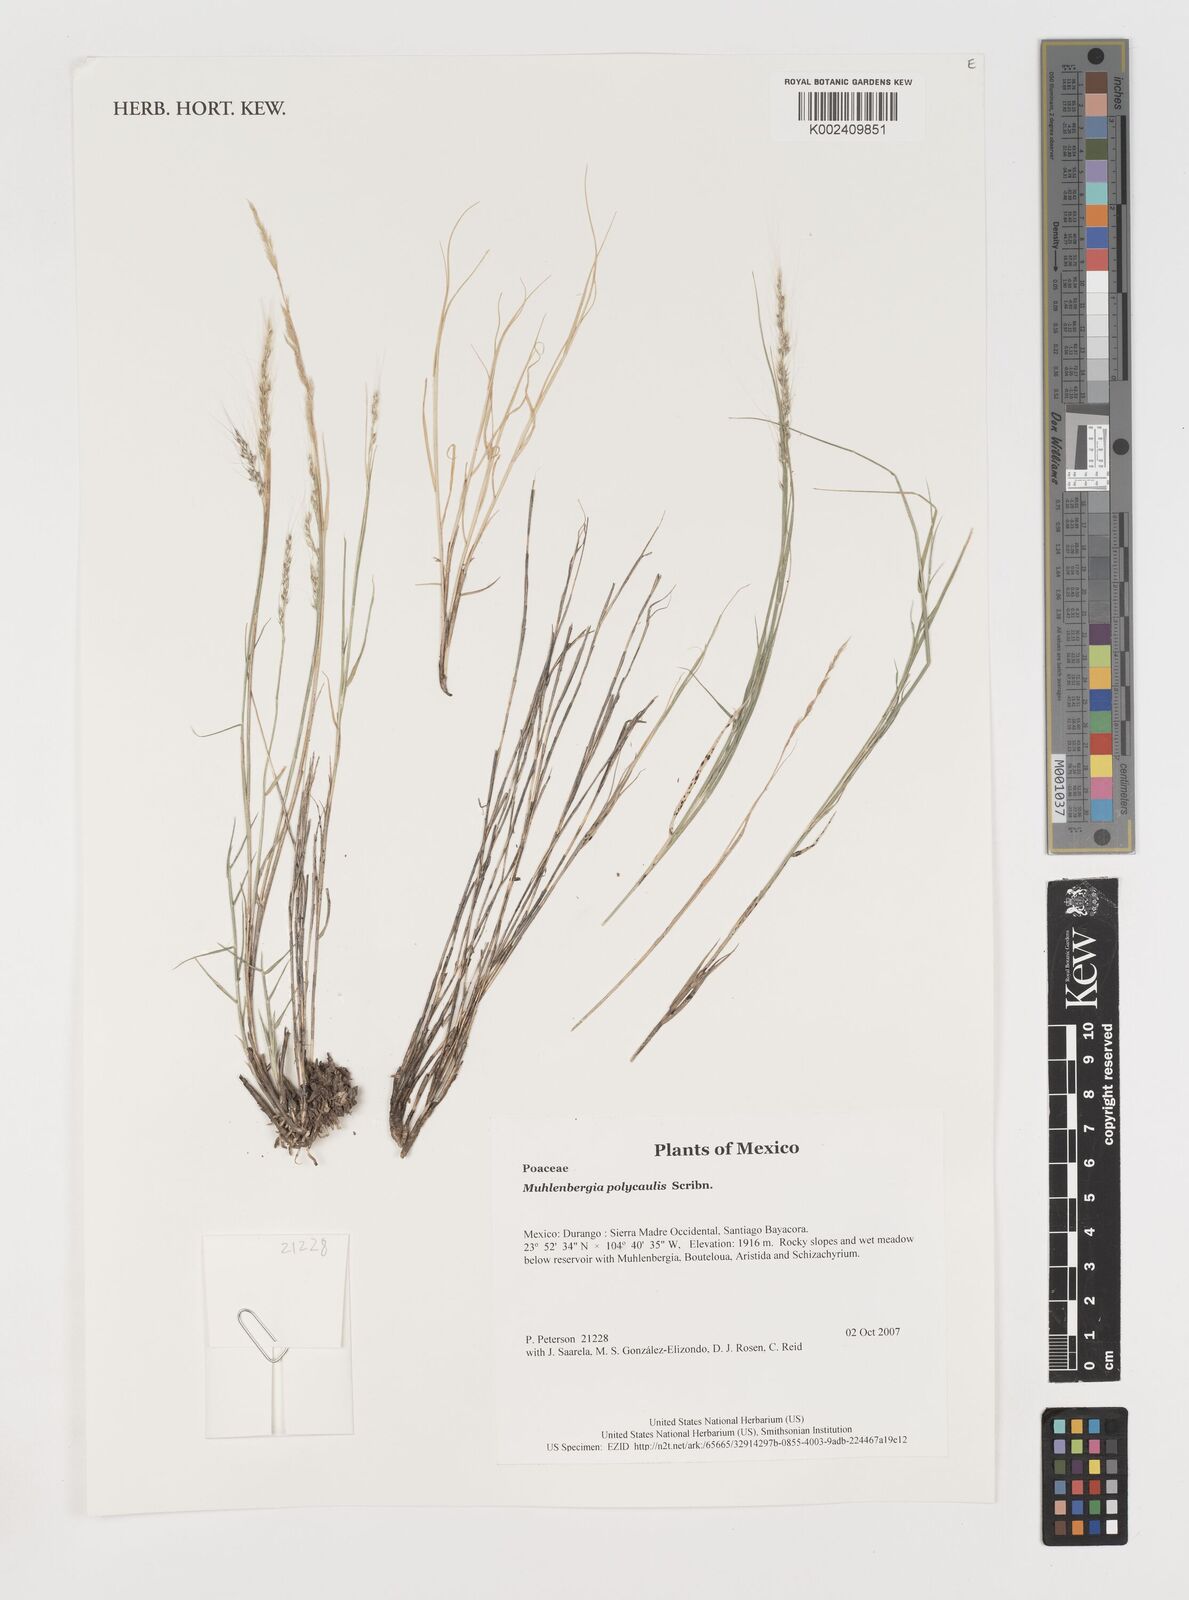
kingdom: Plantae
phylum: Tracheophyta
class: Liliopsida
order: Poales
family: Poaceae
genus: Muhlenbergia
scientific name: Muhlenbergia polycaulis
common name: Cliff muhly
